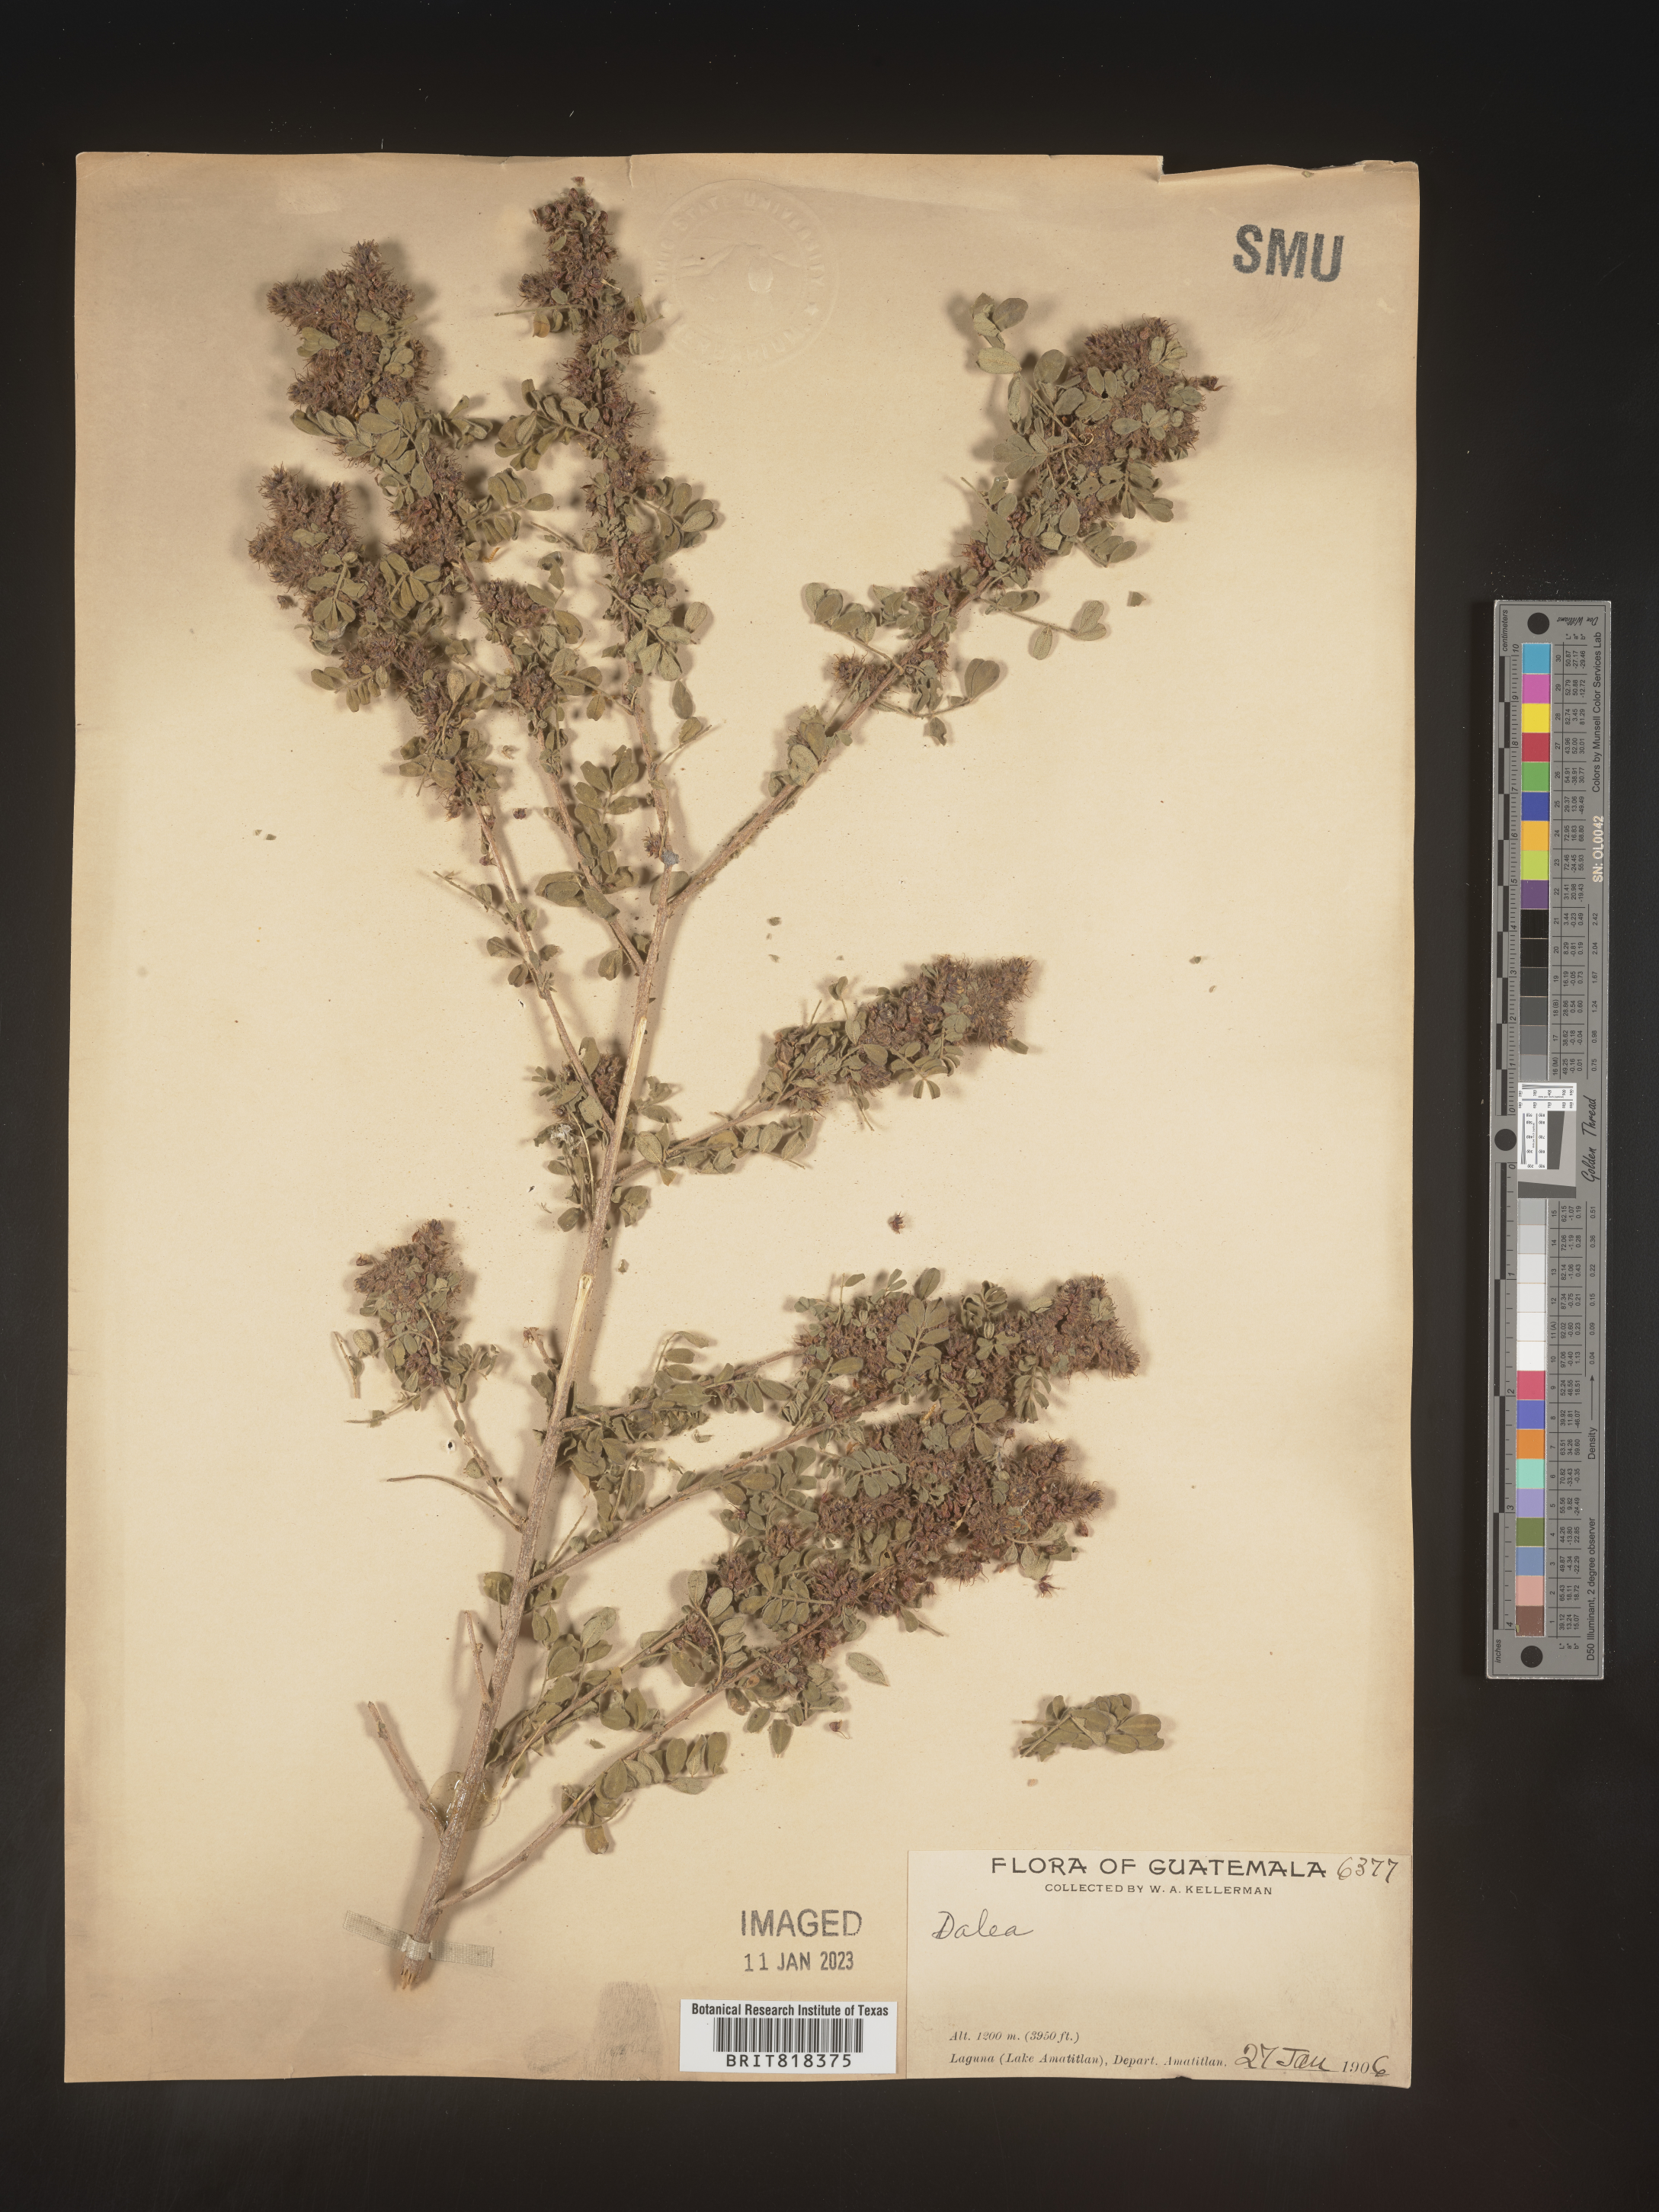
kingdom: Plantae
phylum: Tracheophyta
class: Magnoliopsida
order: Fabales
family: Fabaceae
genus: Dalea
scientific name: Dalea
